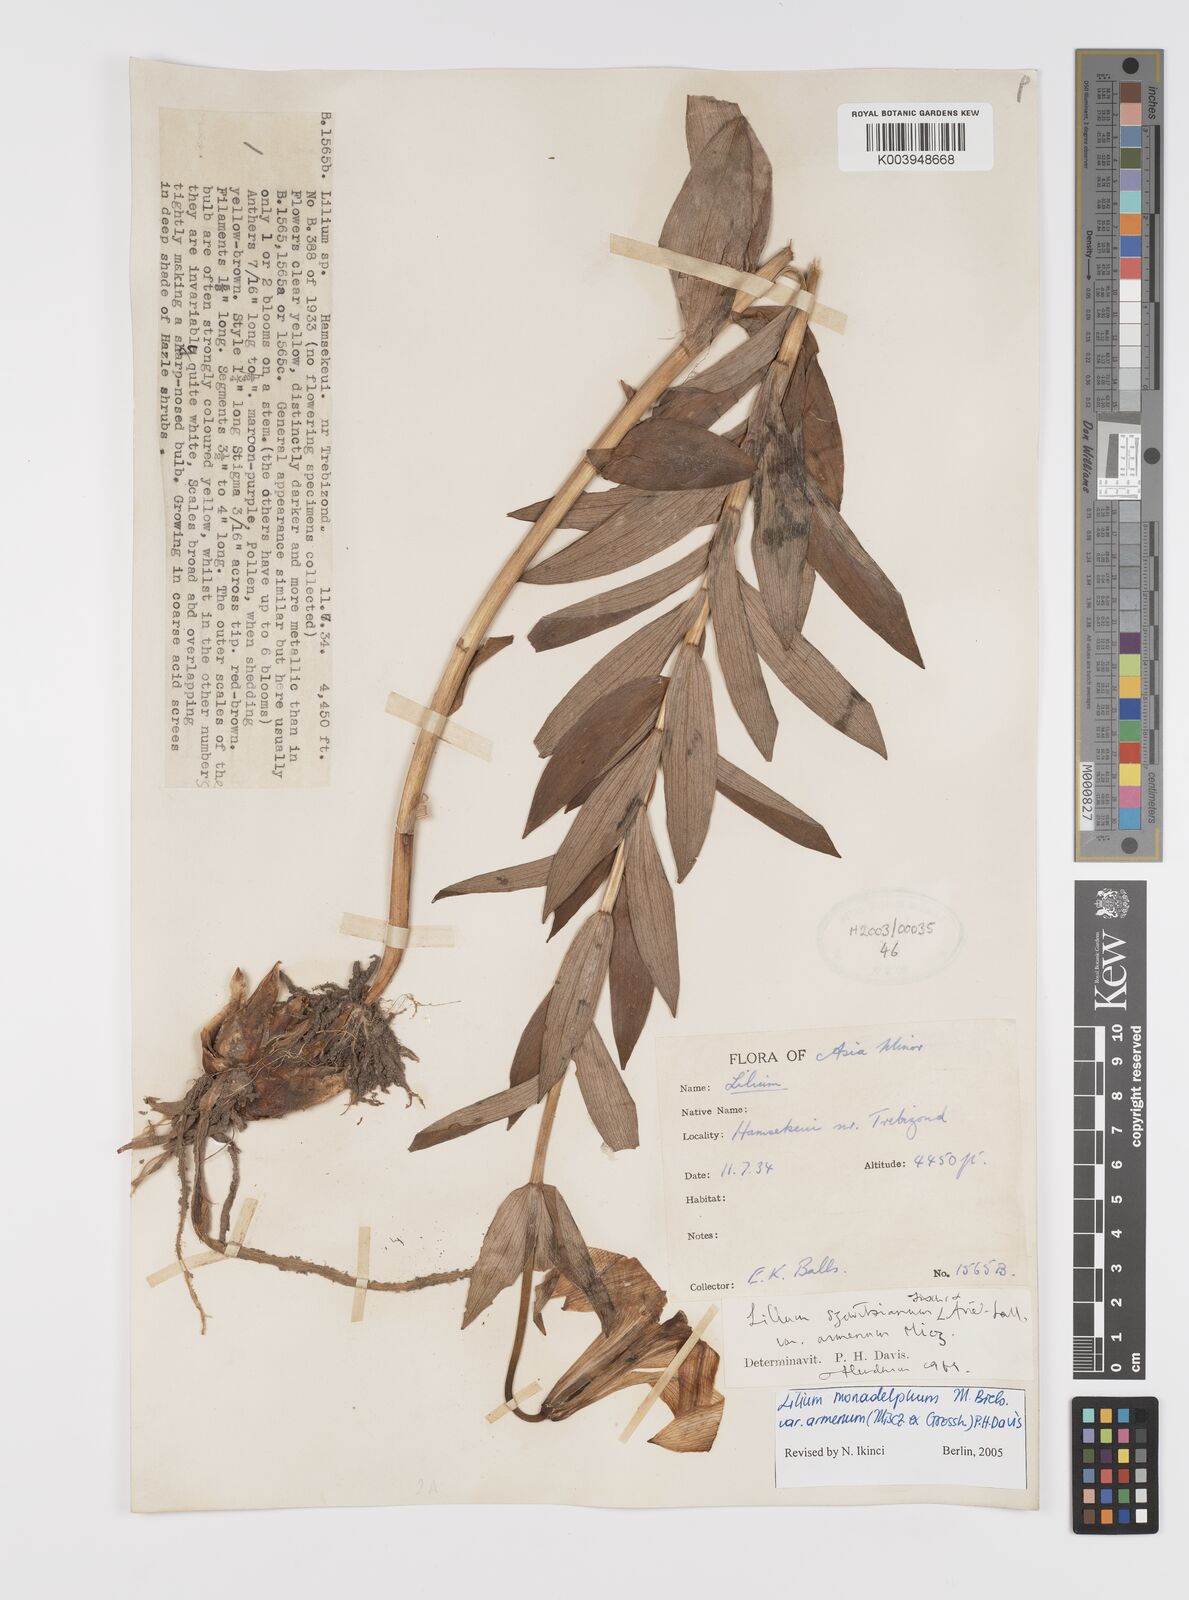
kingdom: Plantae
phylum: Tracheophyta
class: Liliopsida
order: Liliales
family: Liliaceae
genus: Lilium
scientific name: Lilium armenum
